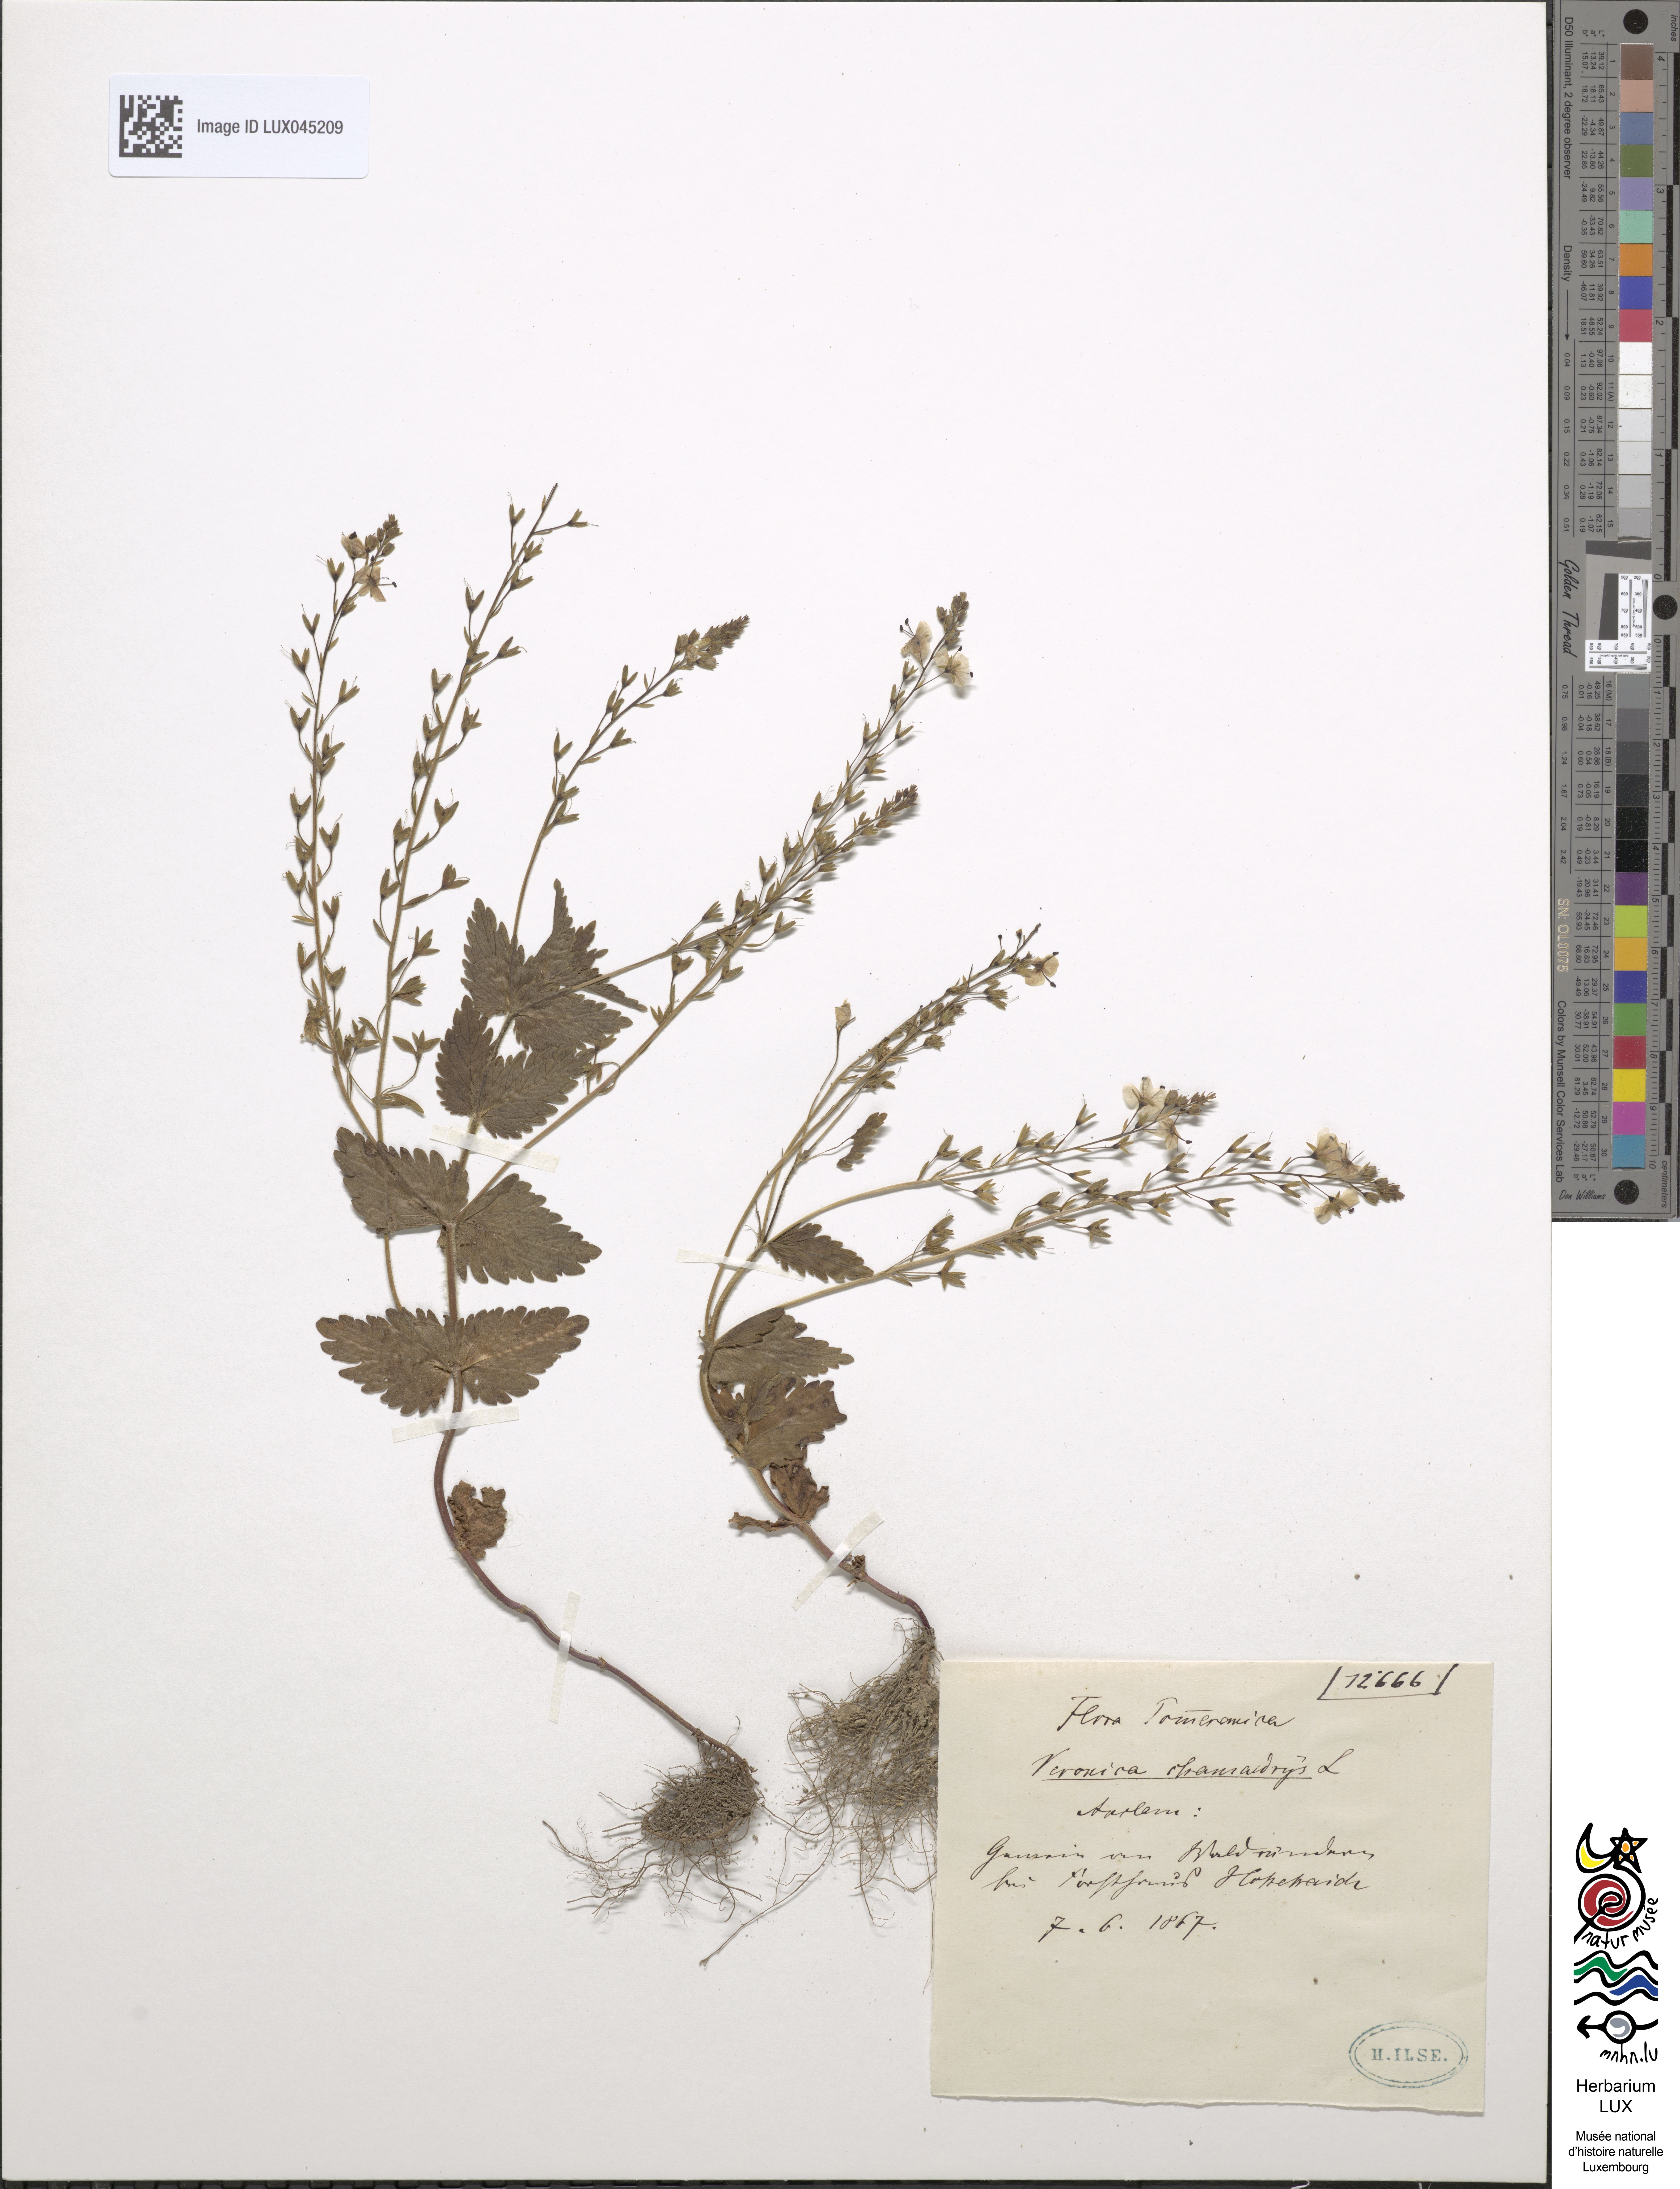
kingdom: Plantae
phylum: Tracheophyta
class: Magnoliopsida
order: Lamiales
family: Plantaginaceae
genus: Veronica
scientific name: Veronica chamaedrys
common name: Germander speedwell
